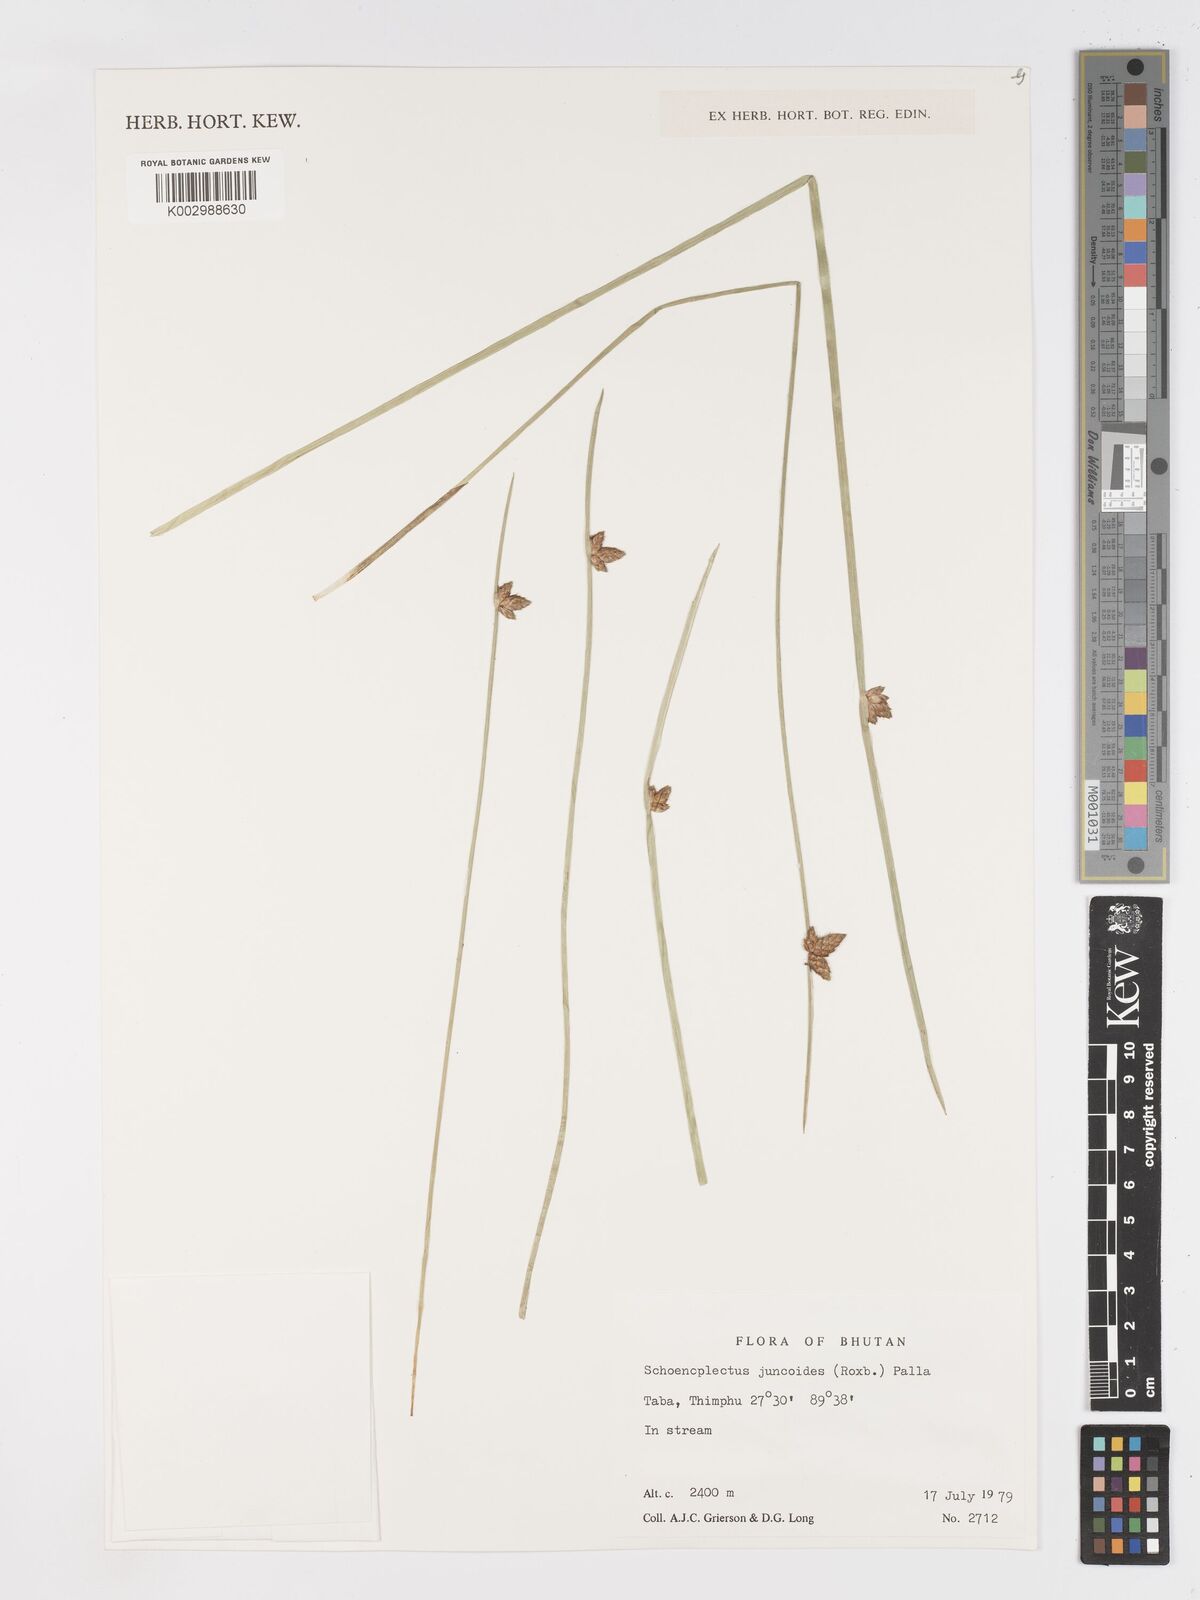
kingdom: Plantae
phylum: Tracheophyta
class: Liliopsida
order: Poales
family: Cyperaceae
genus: Schoenoplectiella
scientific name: Schoenoplectiella juncoides
